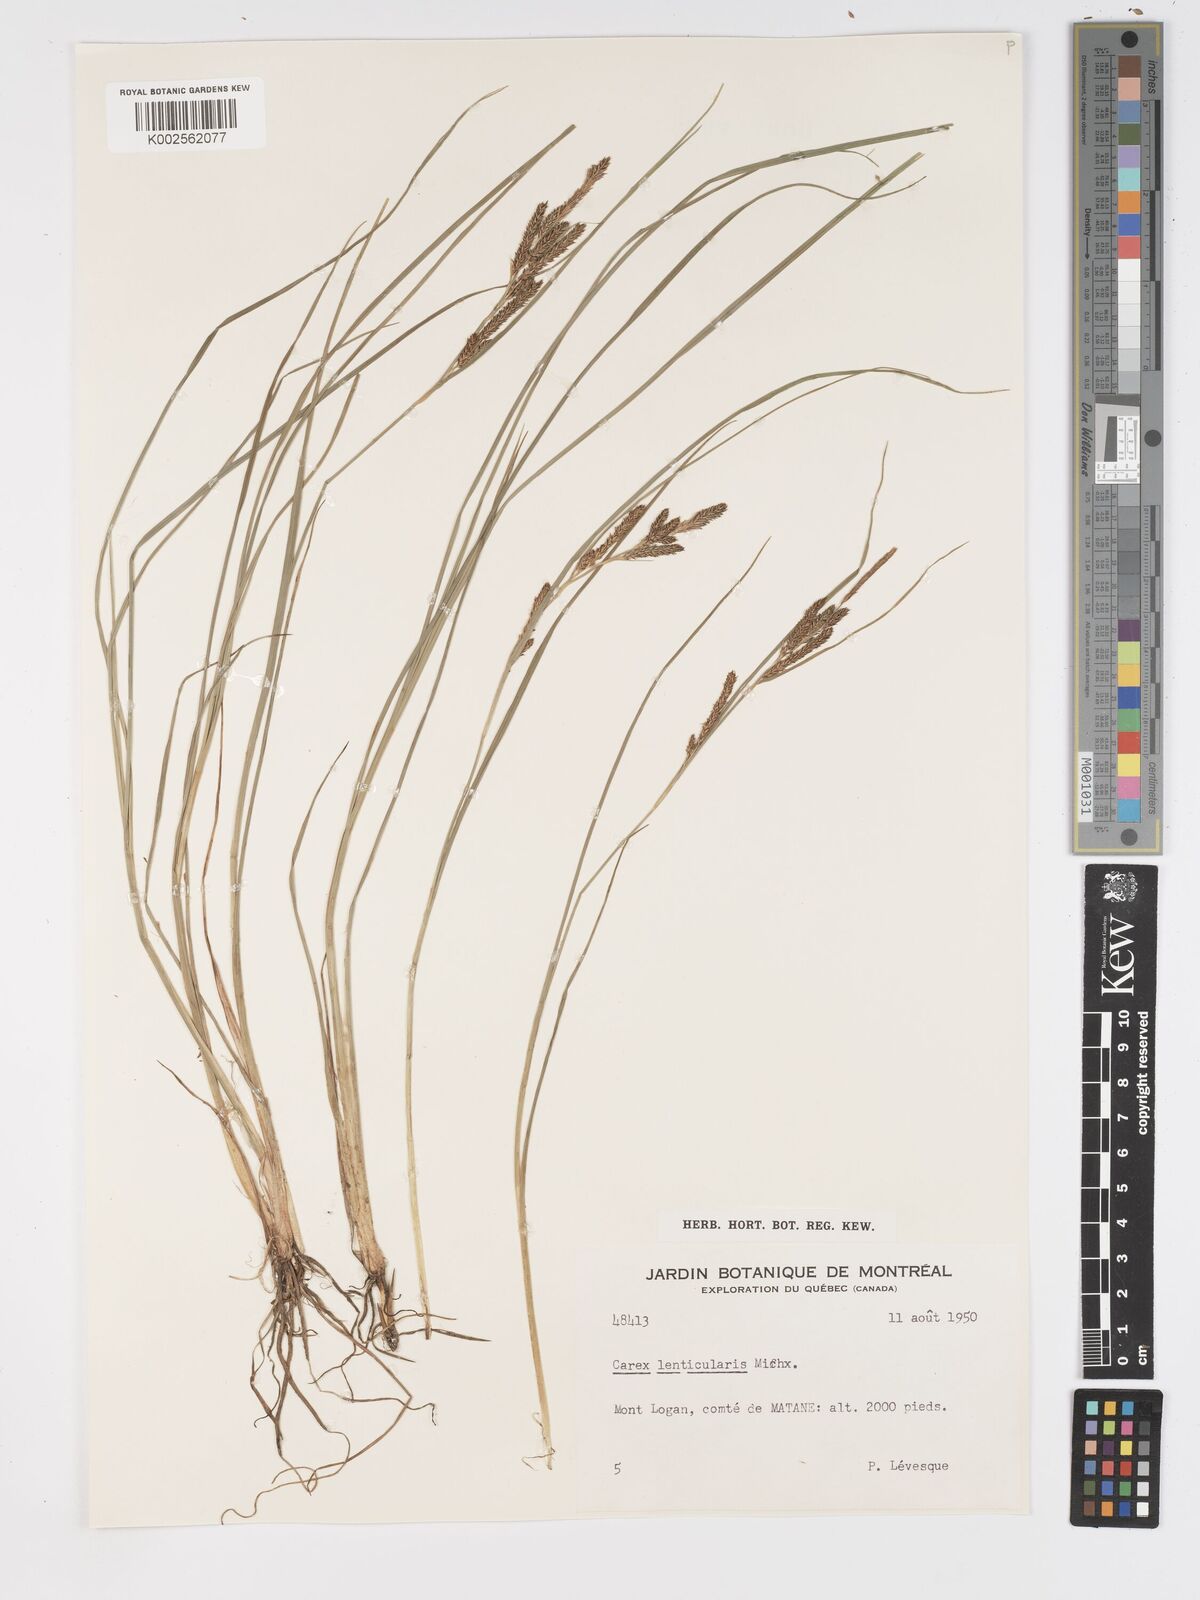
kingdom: Plantae
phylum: Tracheophyta
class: Liliopsida
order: Poales
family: Cyperaceae
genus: Carex
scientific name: Carex lenticularis
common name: Lakeshore sedge
